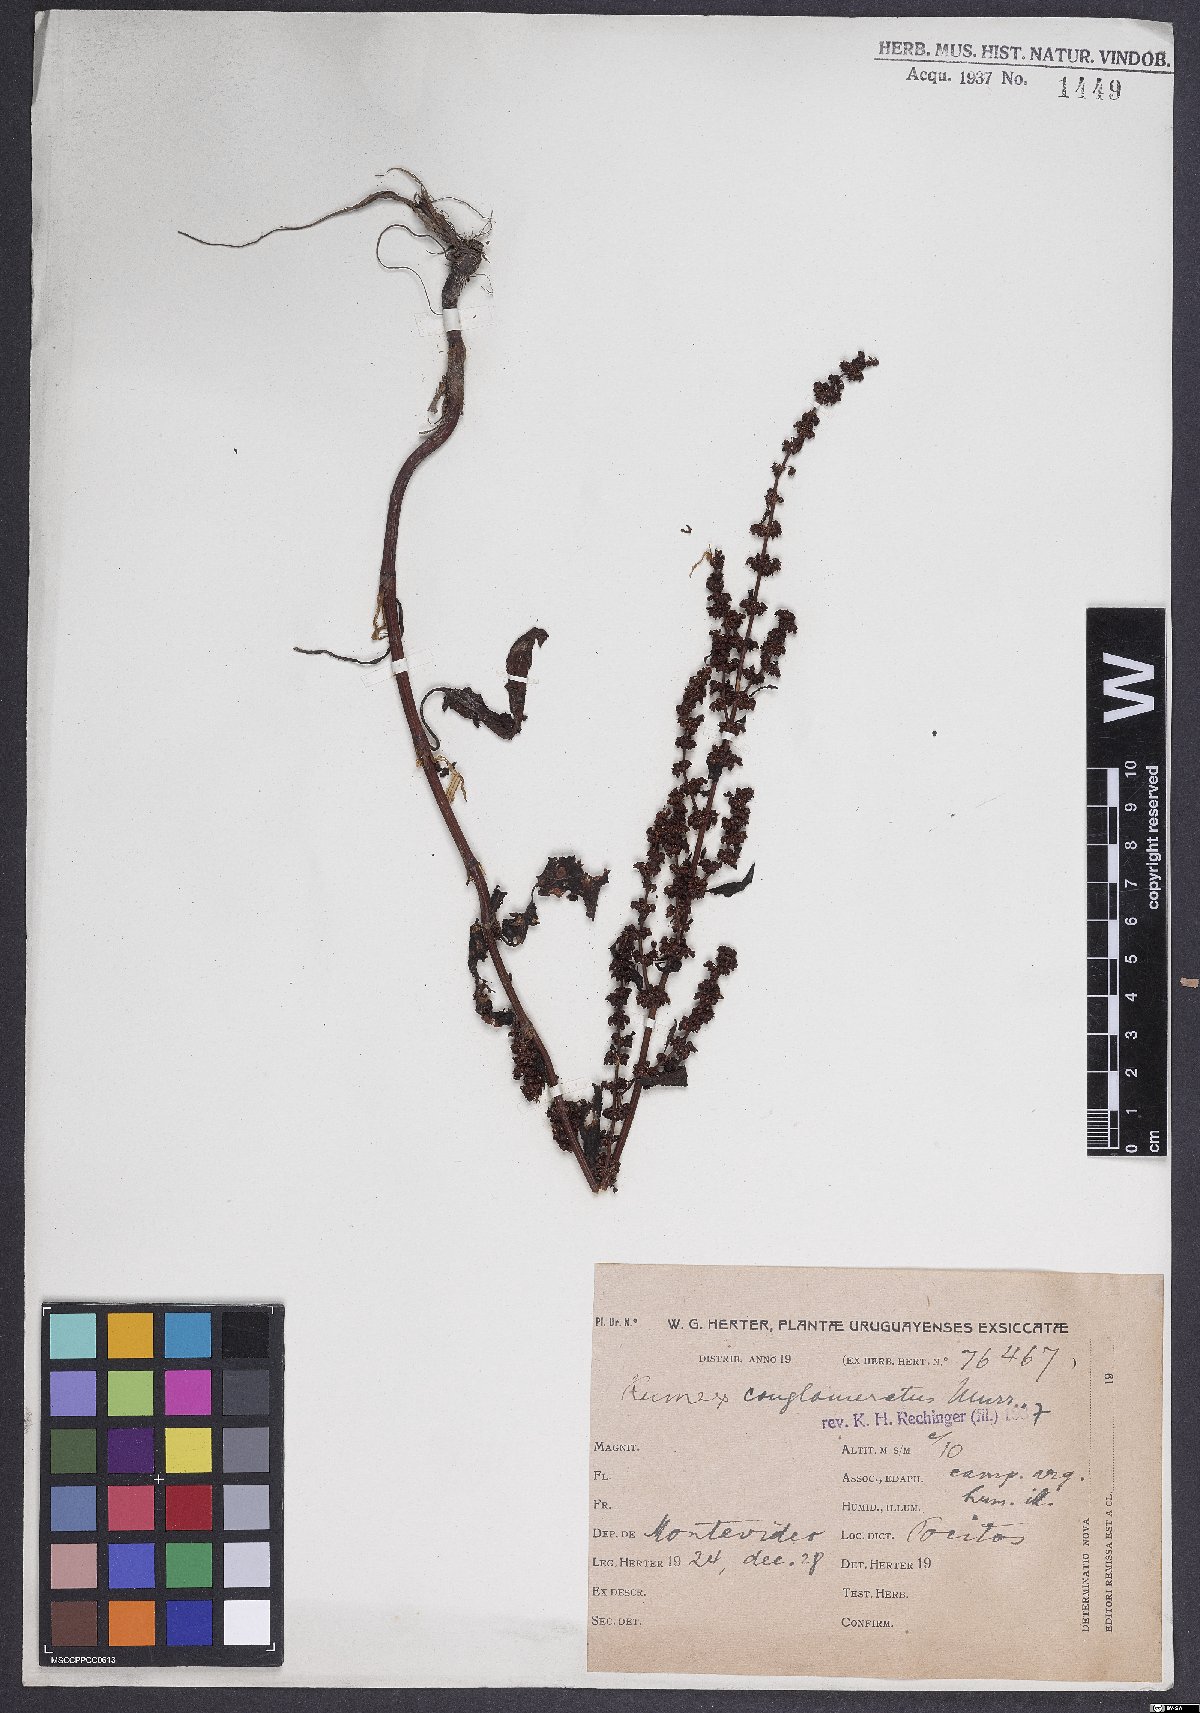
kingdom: Plantae
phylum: Tracheophyta
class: Magnoliopsida
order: Caryophyllales
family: Polygonaceae
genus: Rumex
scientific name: Rumex conglomeratus
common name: Clustered dock
